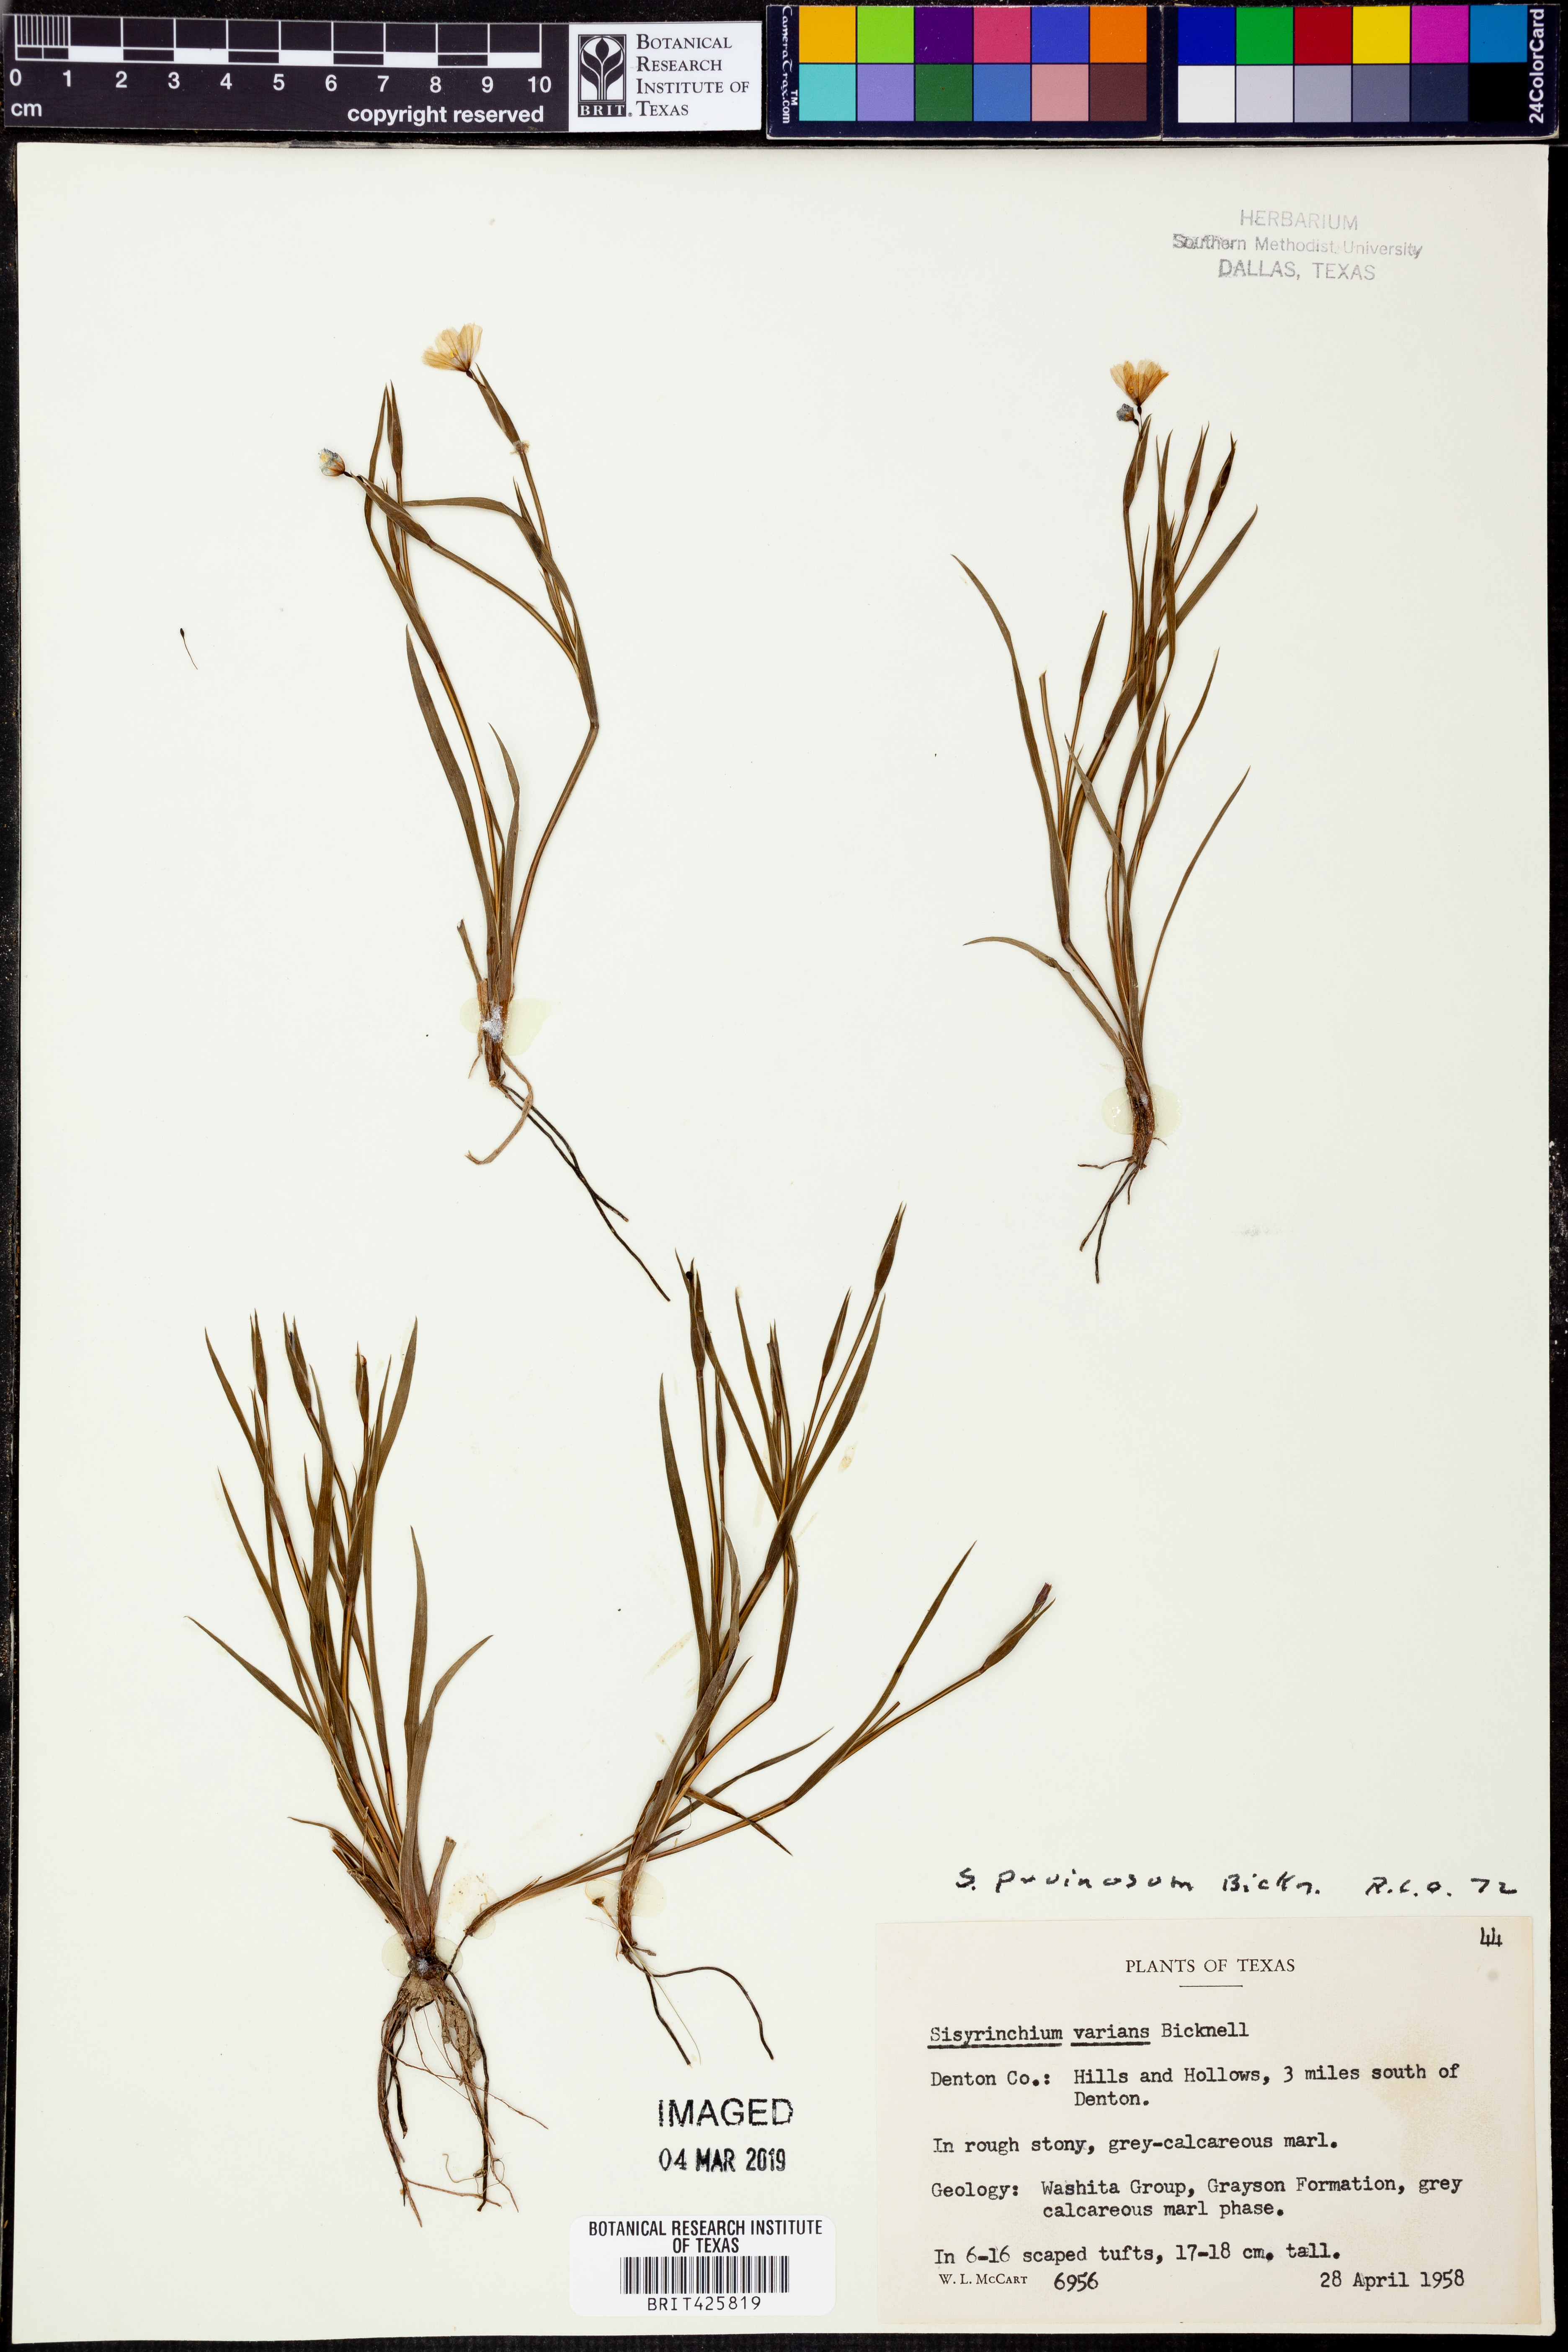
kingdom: Plantae
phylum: Tracheophyta
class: Liliopsida
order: Asparagales
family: Iridaceae
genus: Sisyrinchium
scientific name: Sisyrinchium pruinosum
